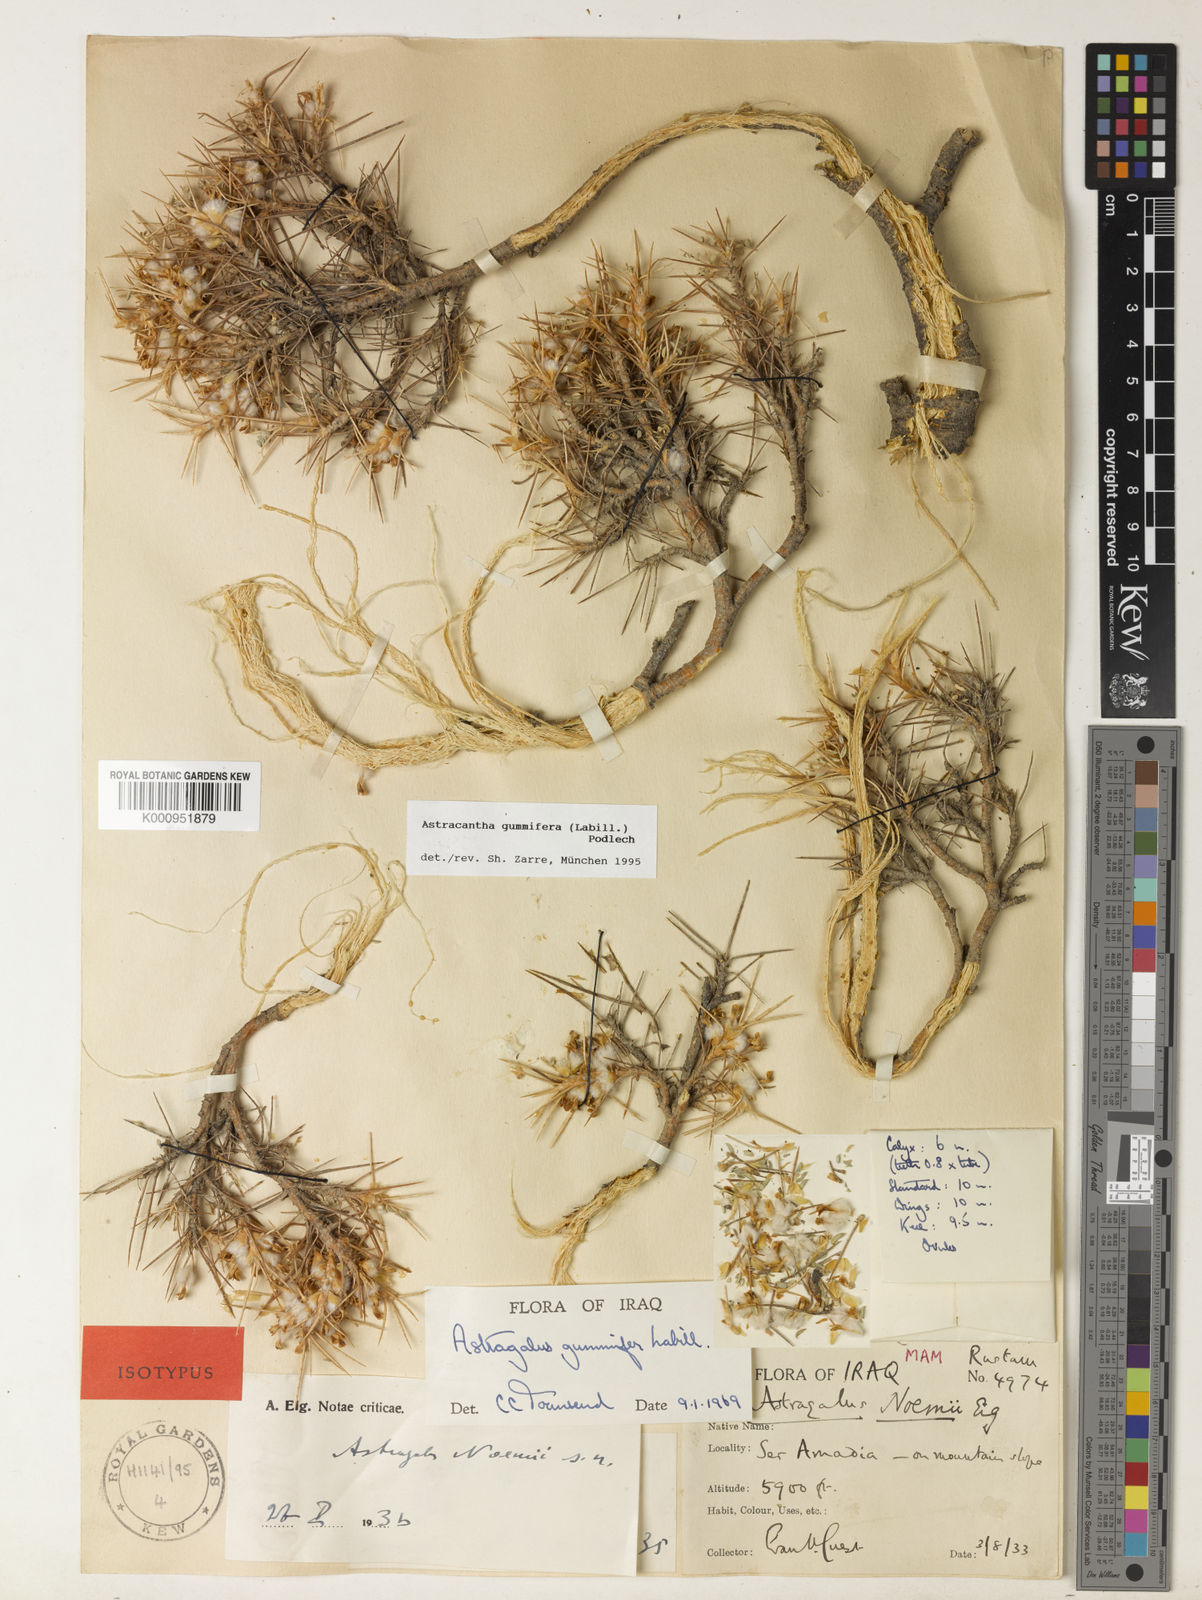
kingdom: Plantae
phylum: Tracheophyta
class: Magnoliopsida
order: Fabales
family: Fabaceae
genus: Astragalus
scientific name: Astragalus gummifer
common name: Tragacanth
